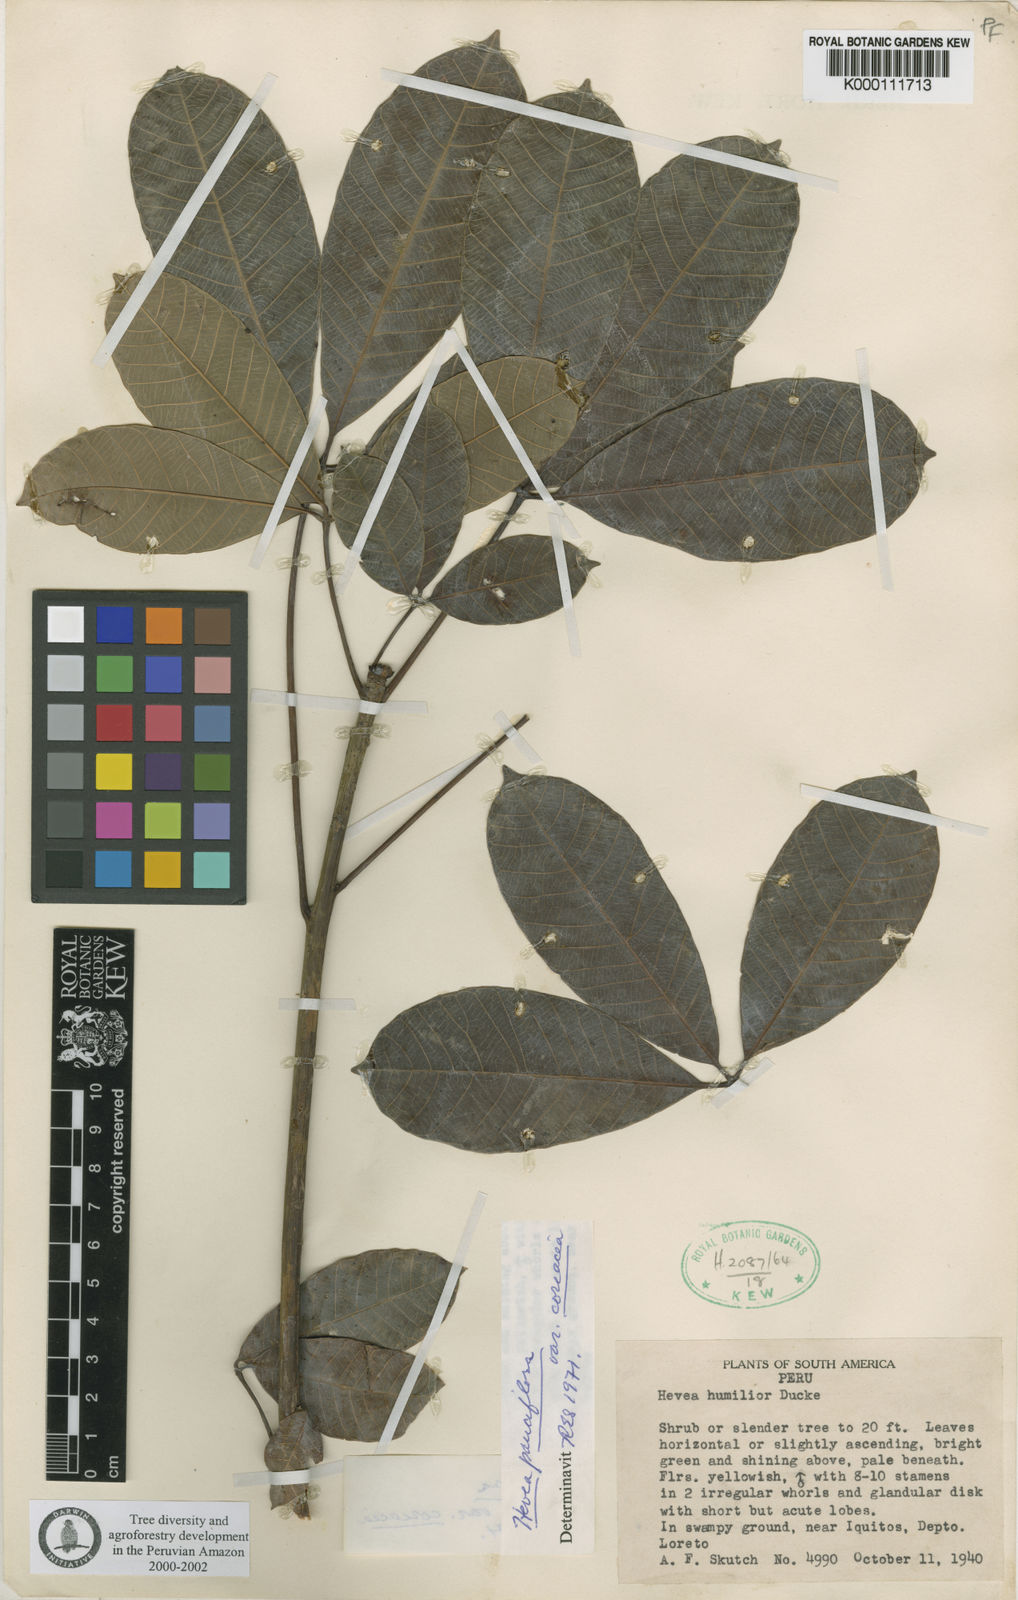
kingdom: Plantae
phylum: Tracheophyta
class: Magnoliopsida
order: Malpighiales
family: Euphorbiaceae
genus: Hevea
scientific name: Hevea pauciflora
